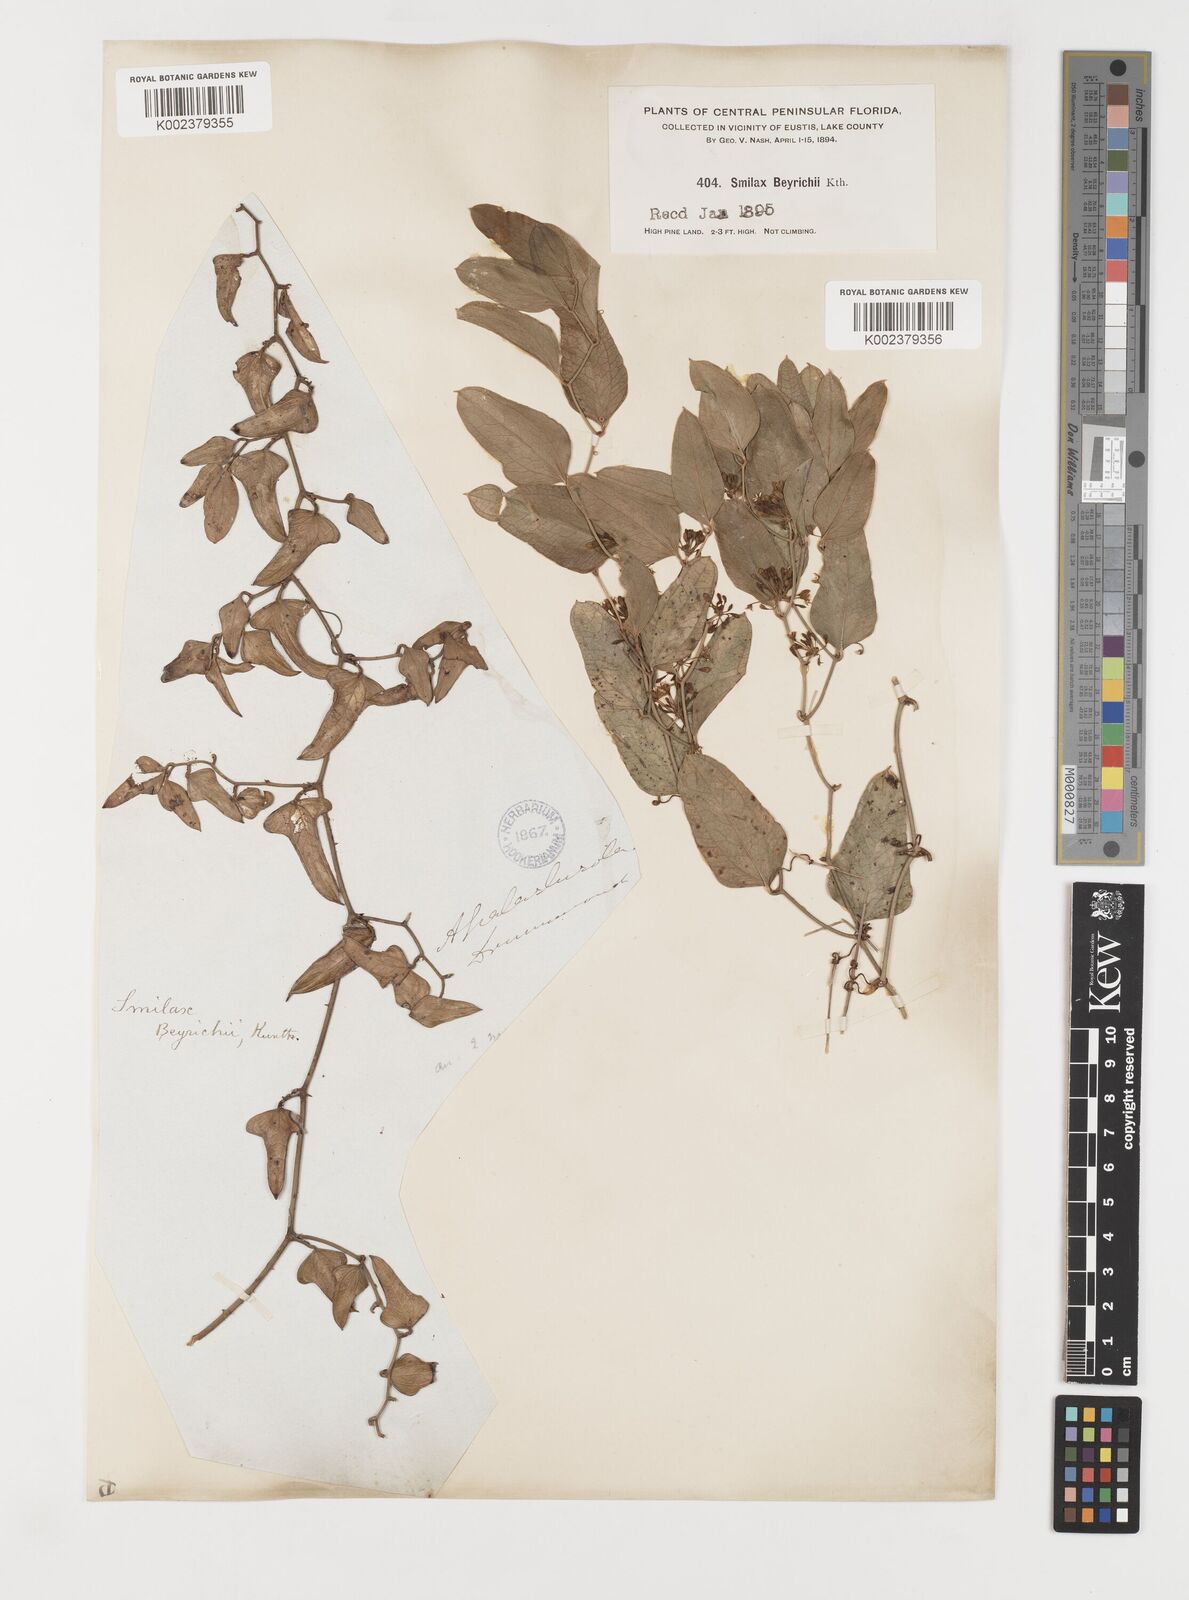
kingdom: Plantae
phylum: Tracheophyta
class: Liliopsida
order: Liliales
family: Smilacaceae
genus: Smilax
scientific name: Smilax auriculata
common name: Wild bamboo
